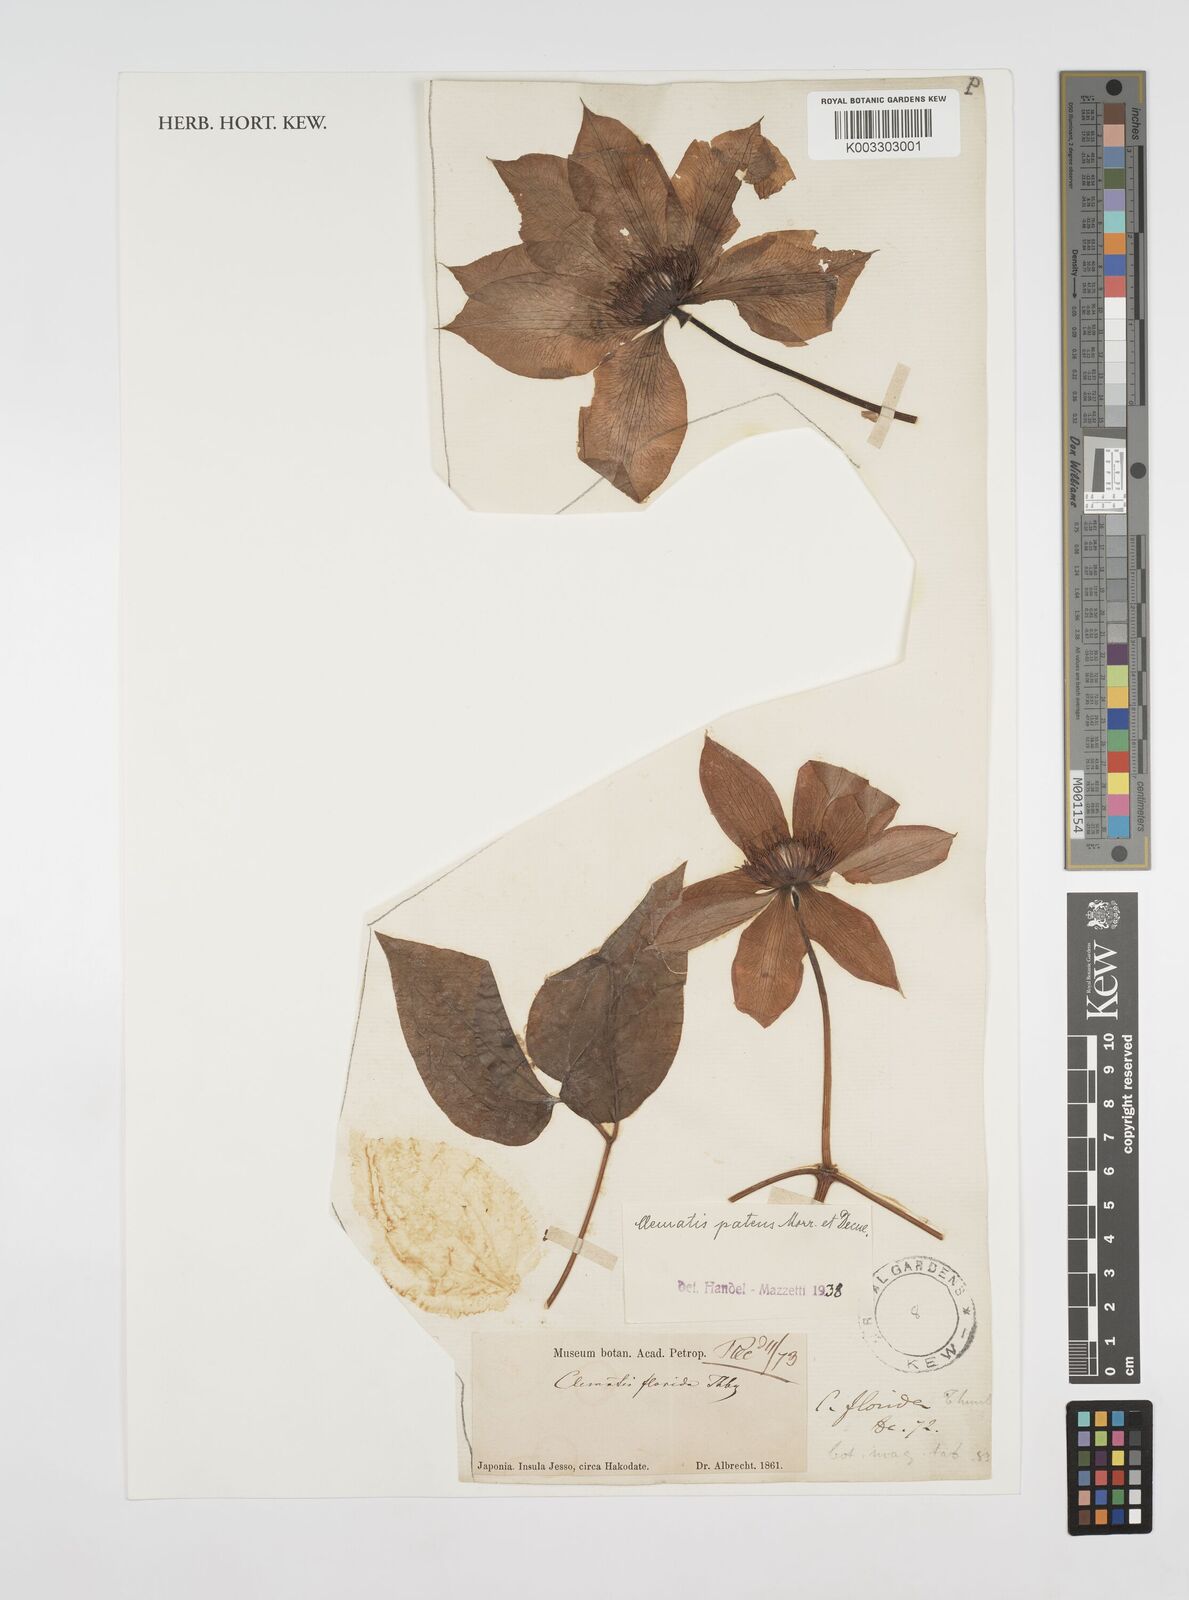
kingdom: Plantae
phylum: Tracheophyta
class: Magnoliopsida
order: Ranunculales
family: Ranunculaceae
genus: Clematis
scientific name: Clematis patens
